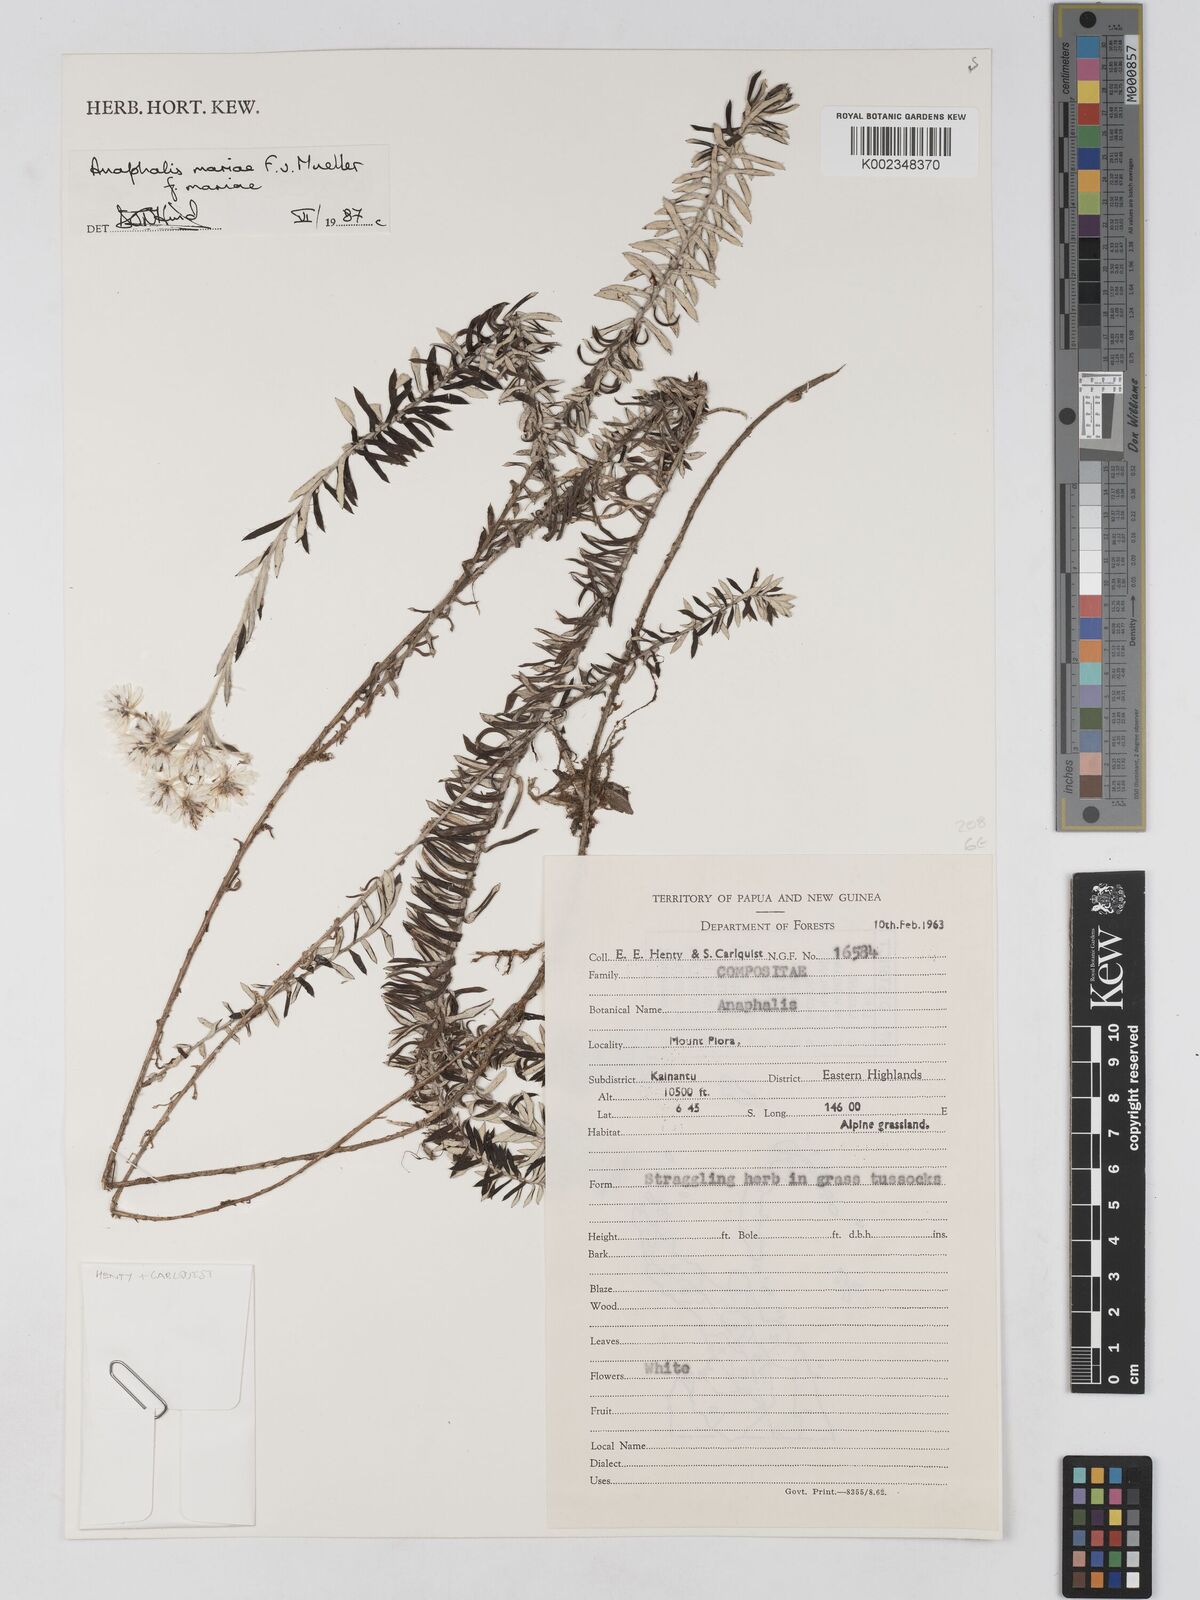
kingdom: Plantae
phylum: Tracheophyta
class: Magnoliopsida
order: Asterales
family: Asteraceae
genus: Anaphalioides
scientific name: Anaphalioides mariae
